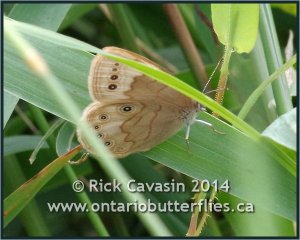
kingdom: Animalia
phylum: Arthropoda
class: Insecta
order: Lepidoptera
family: Nymphalidae
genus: Lethe
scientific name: Lethe eurydice
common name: Eyed Brown
